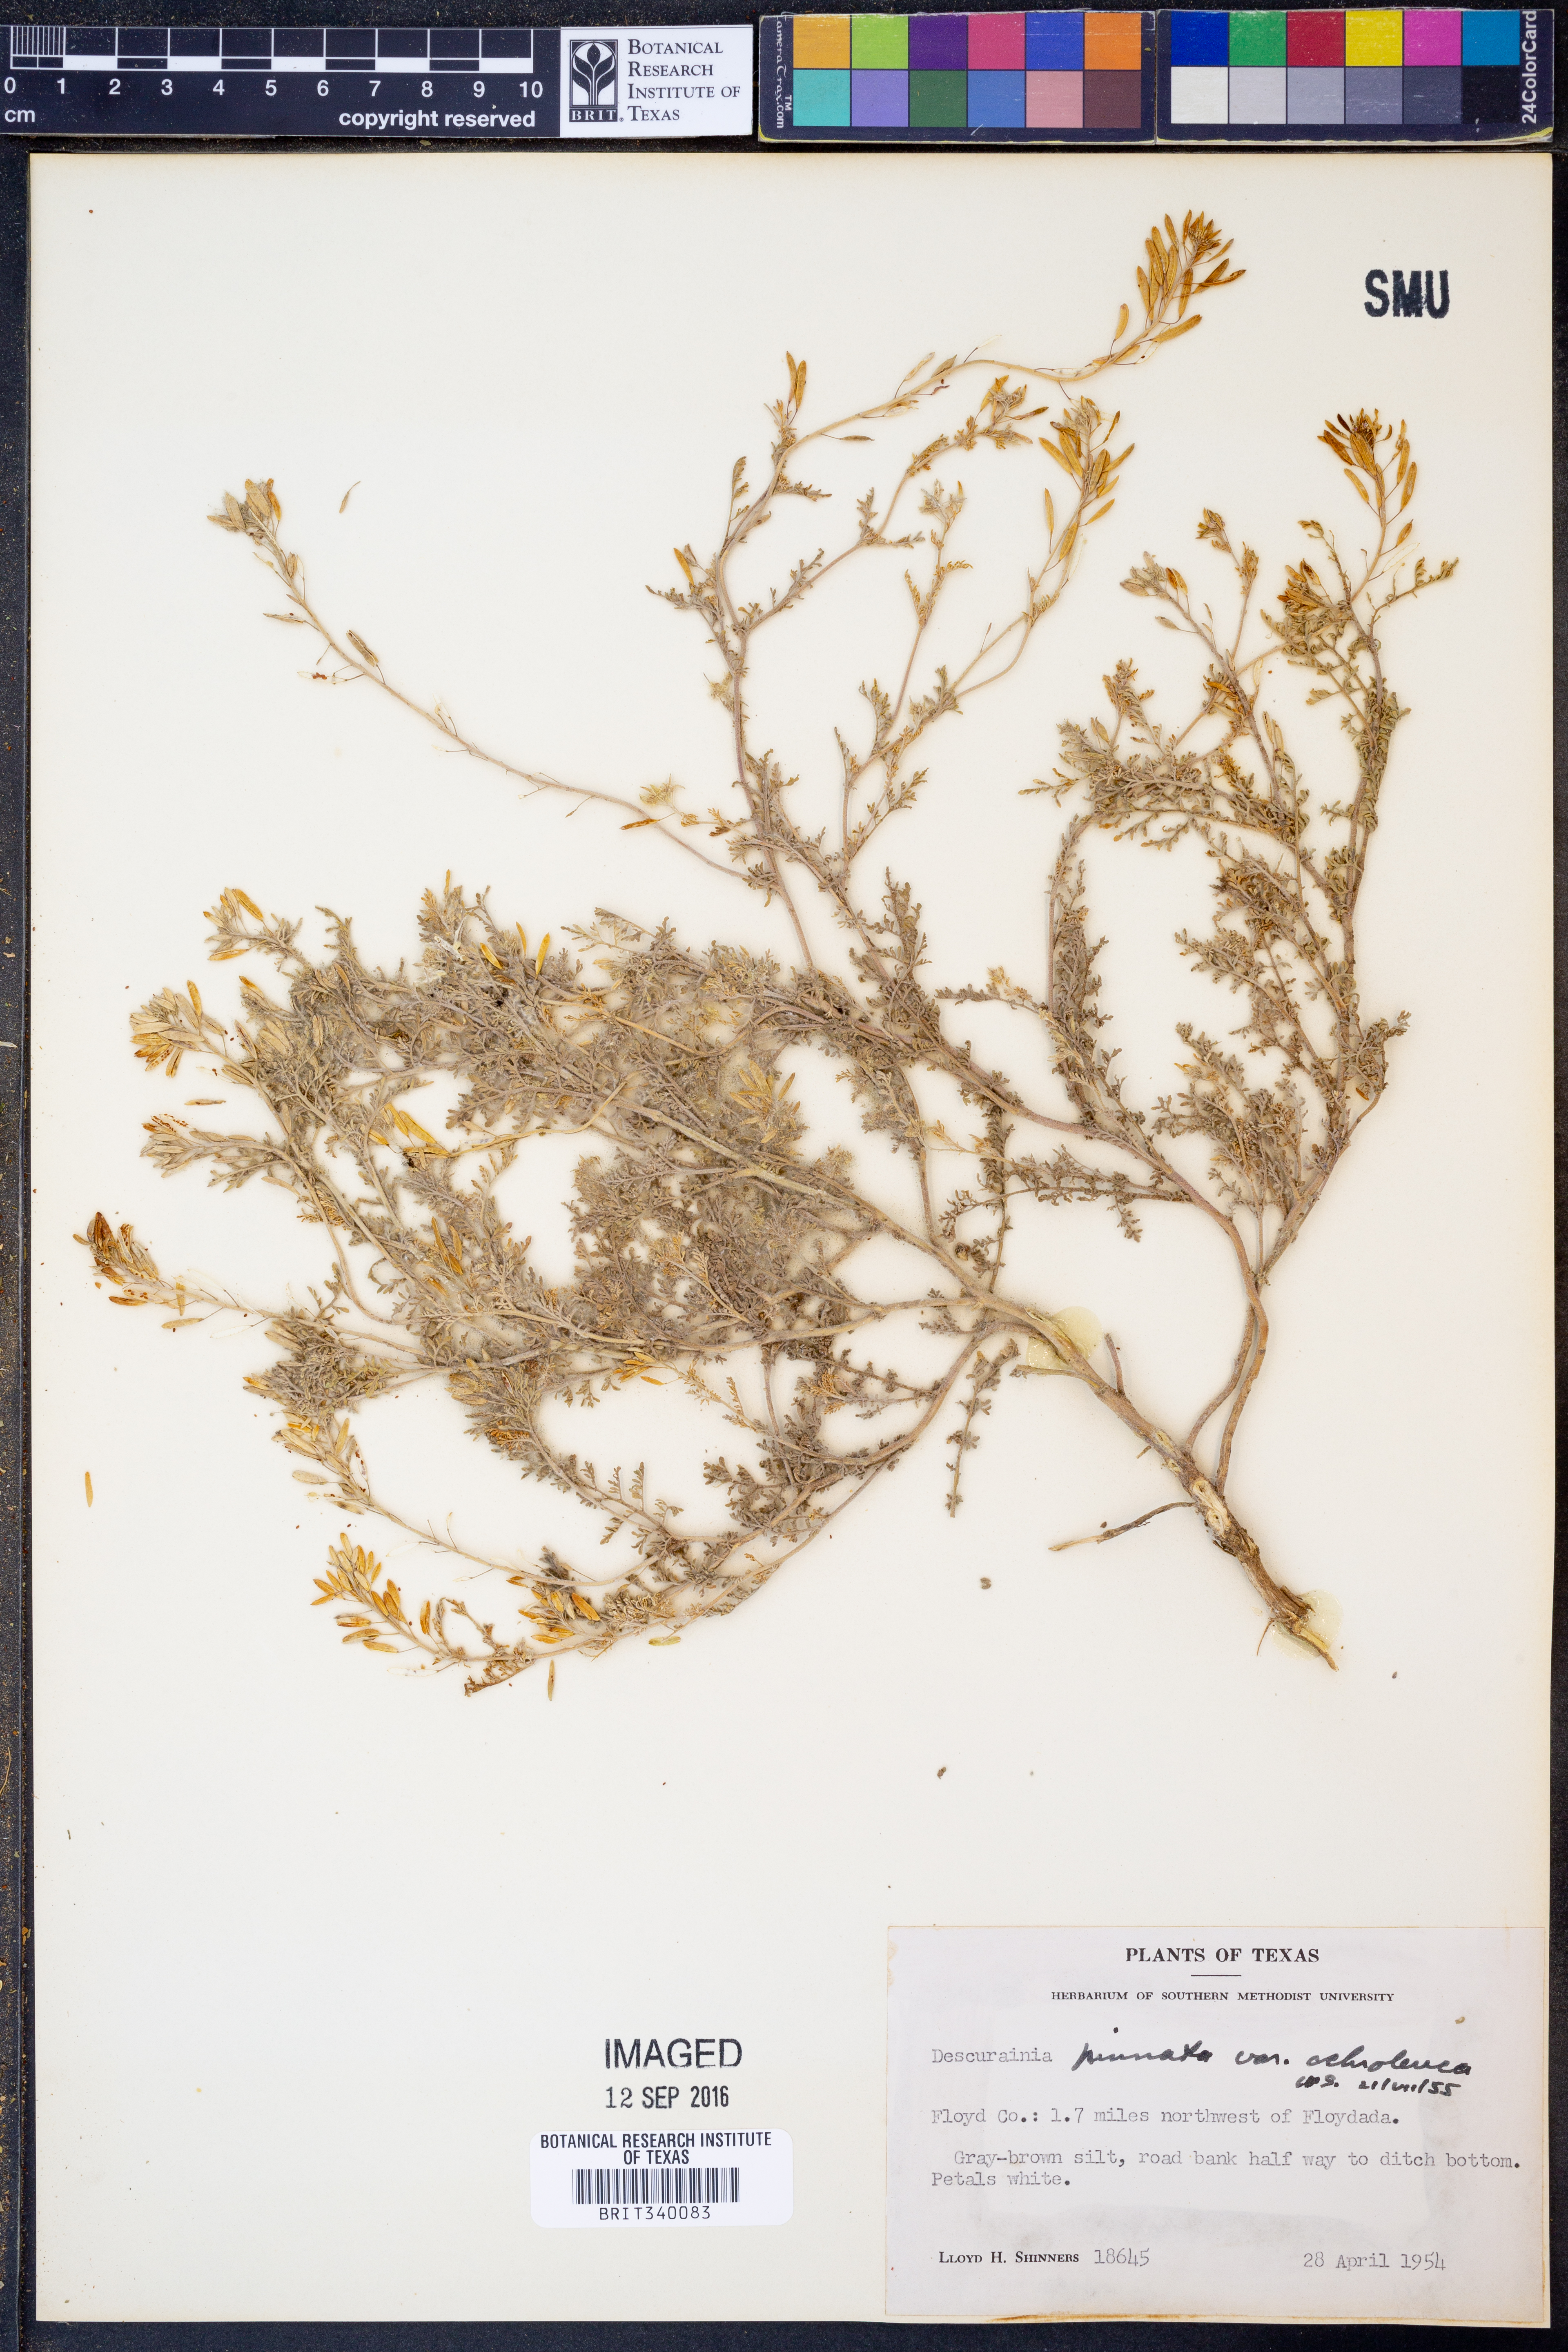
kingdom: Plantae
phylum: Tracheophyta
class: Magnoliopsida
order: Brassicales
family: Brassicaceae
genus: Descurainia
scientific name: Descurainia pinnata
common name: Western tansy mustard
